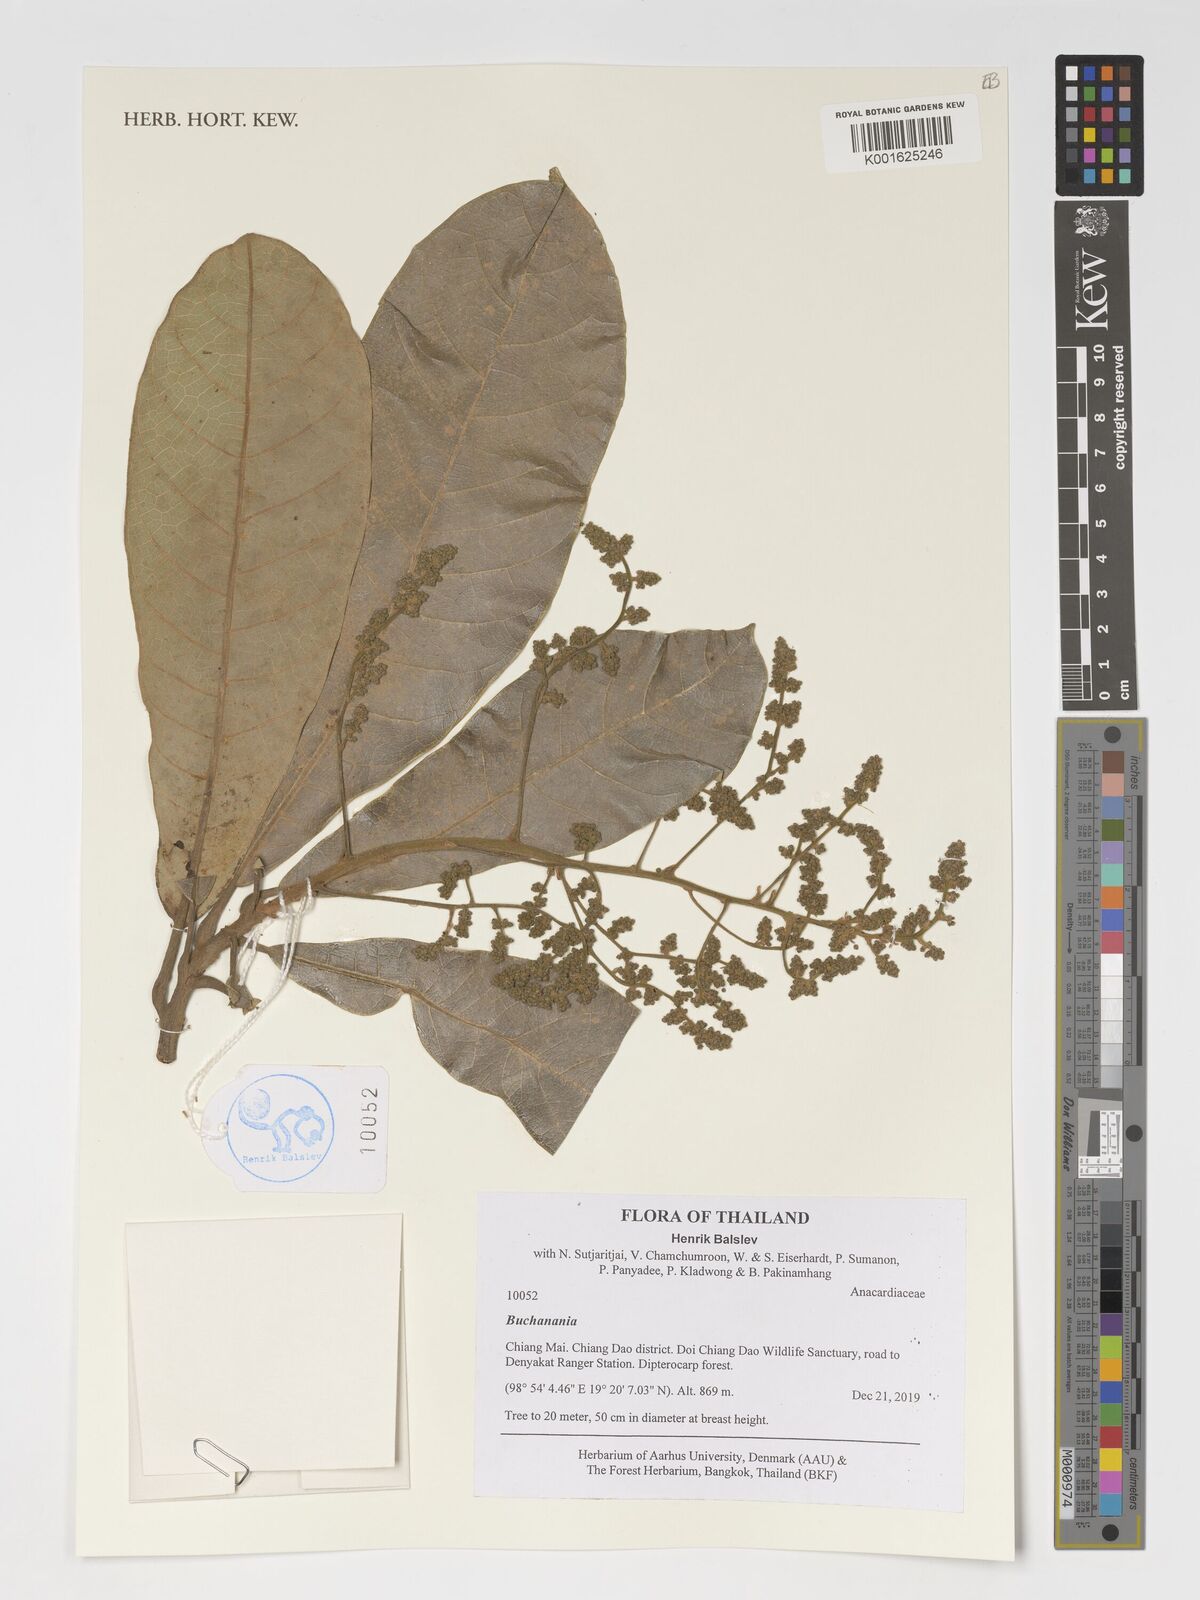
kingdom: Plantae
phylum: Tracheophyta
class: Magnoliopsida
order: Sapindales
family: Anacardiaceae
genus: Buchanania
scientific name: Buchanania
